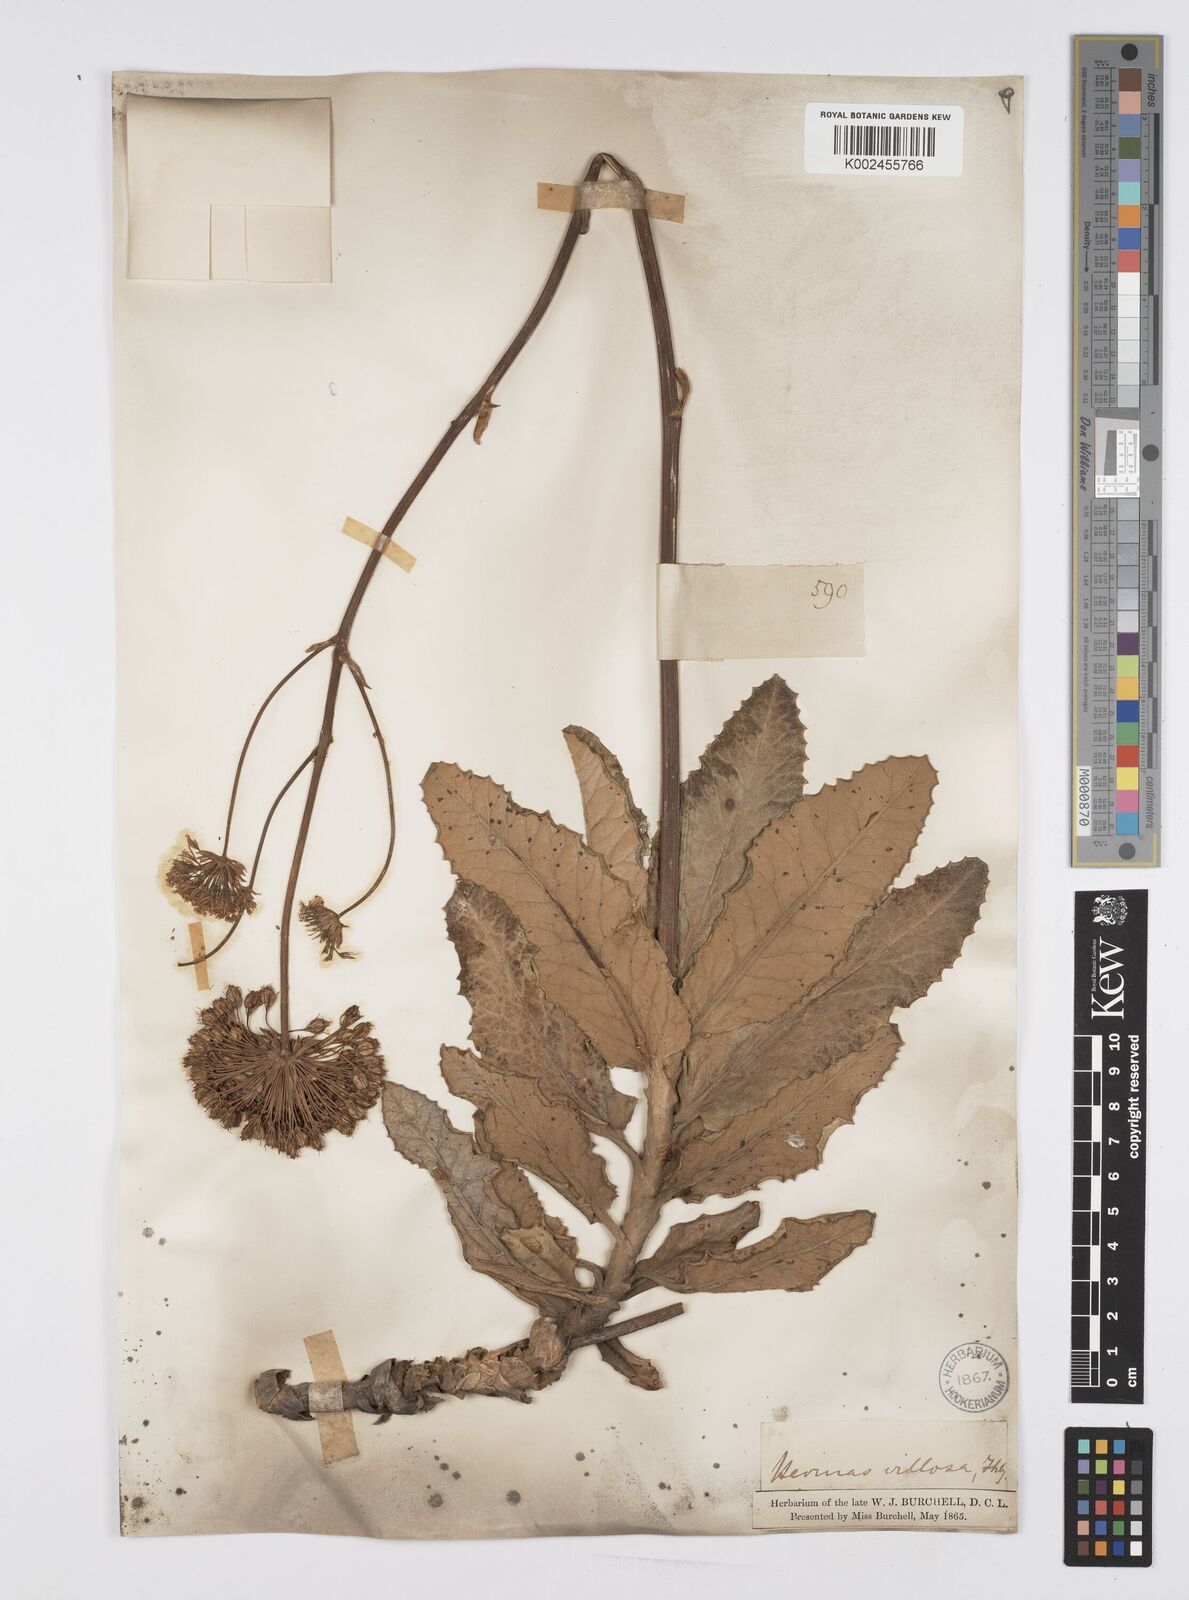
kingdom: Plantae
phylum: Tracheophyta
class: Magnoliopsida
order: Apiales
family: Apiaceae
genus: Hermas
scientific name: Hermas villosa
